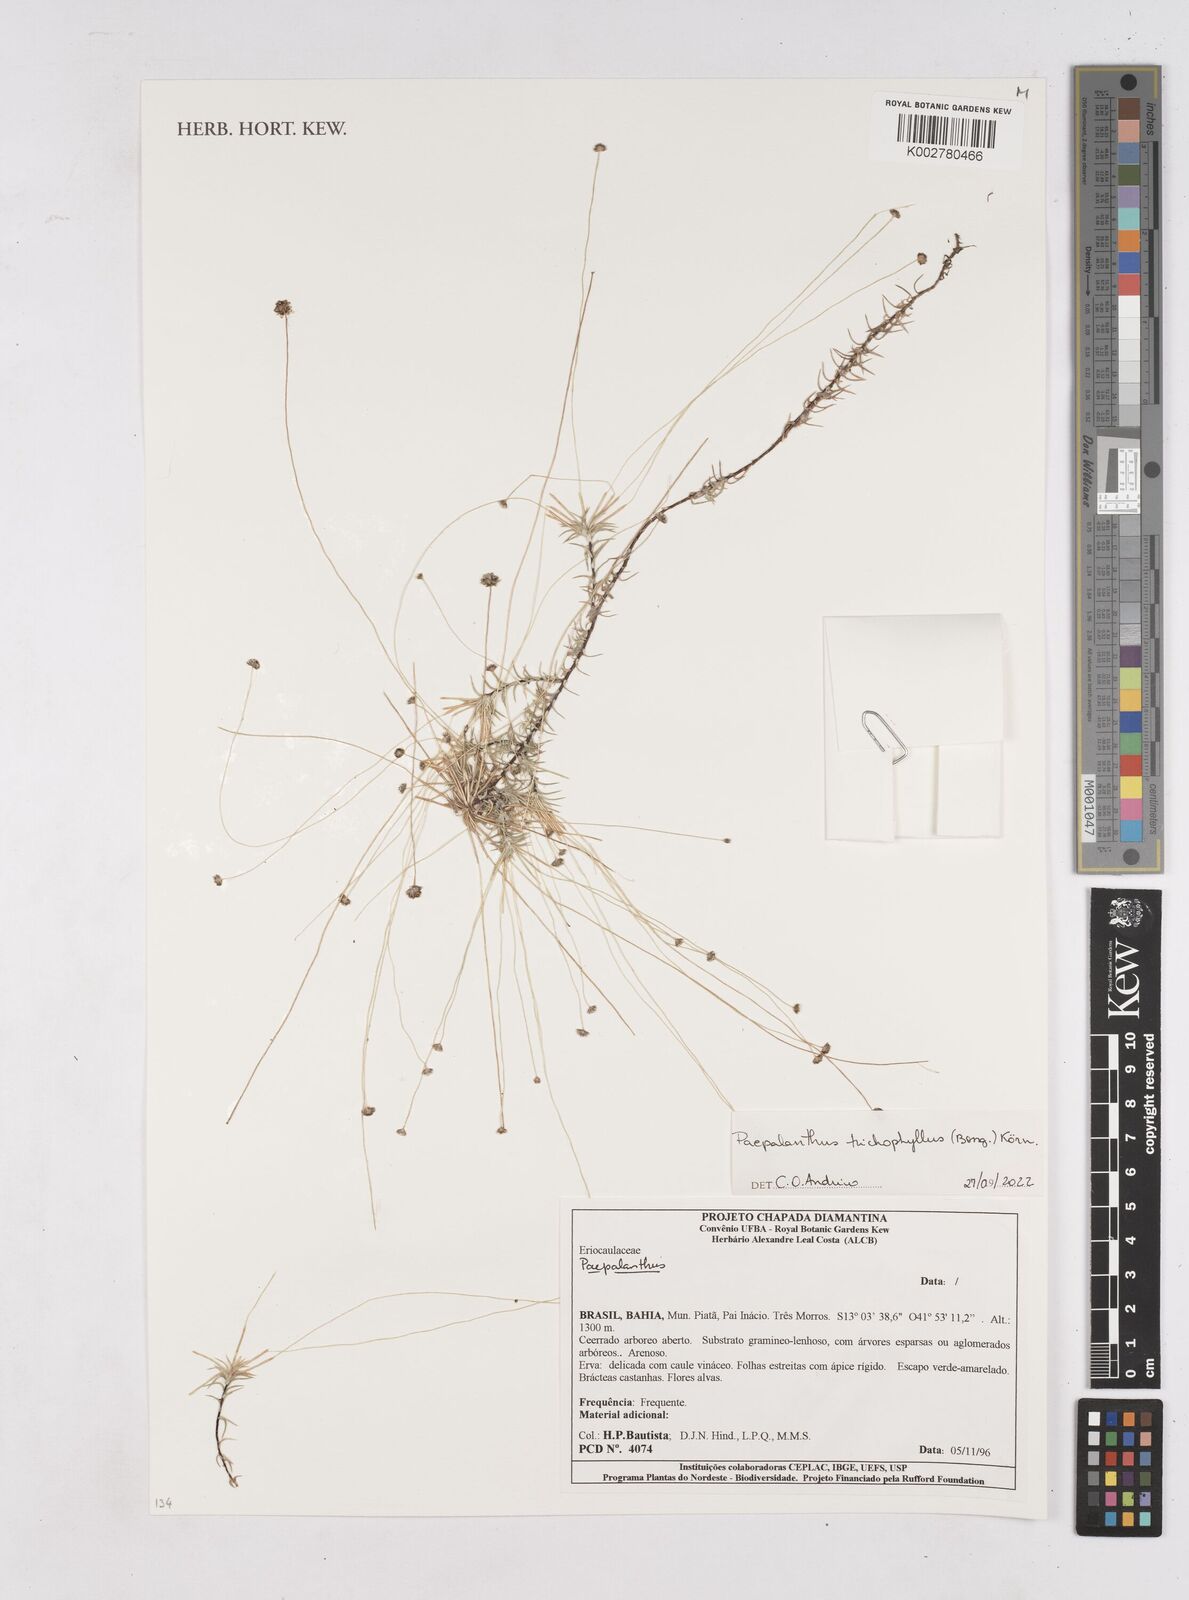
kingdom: Plantae
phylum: Tracheophyta
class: Liliopsida
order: Poales
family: Eriocaulaceae
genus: Paepalanthus
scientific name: Paepalanthus trichophyllus
